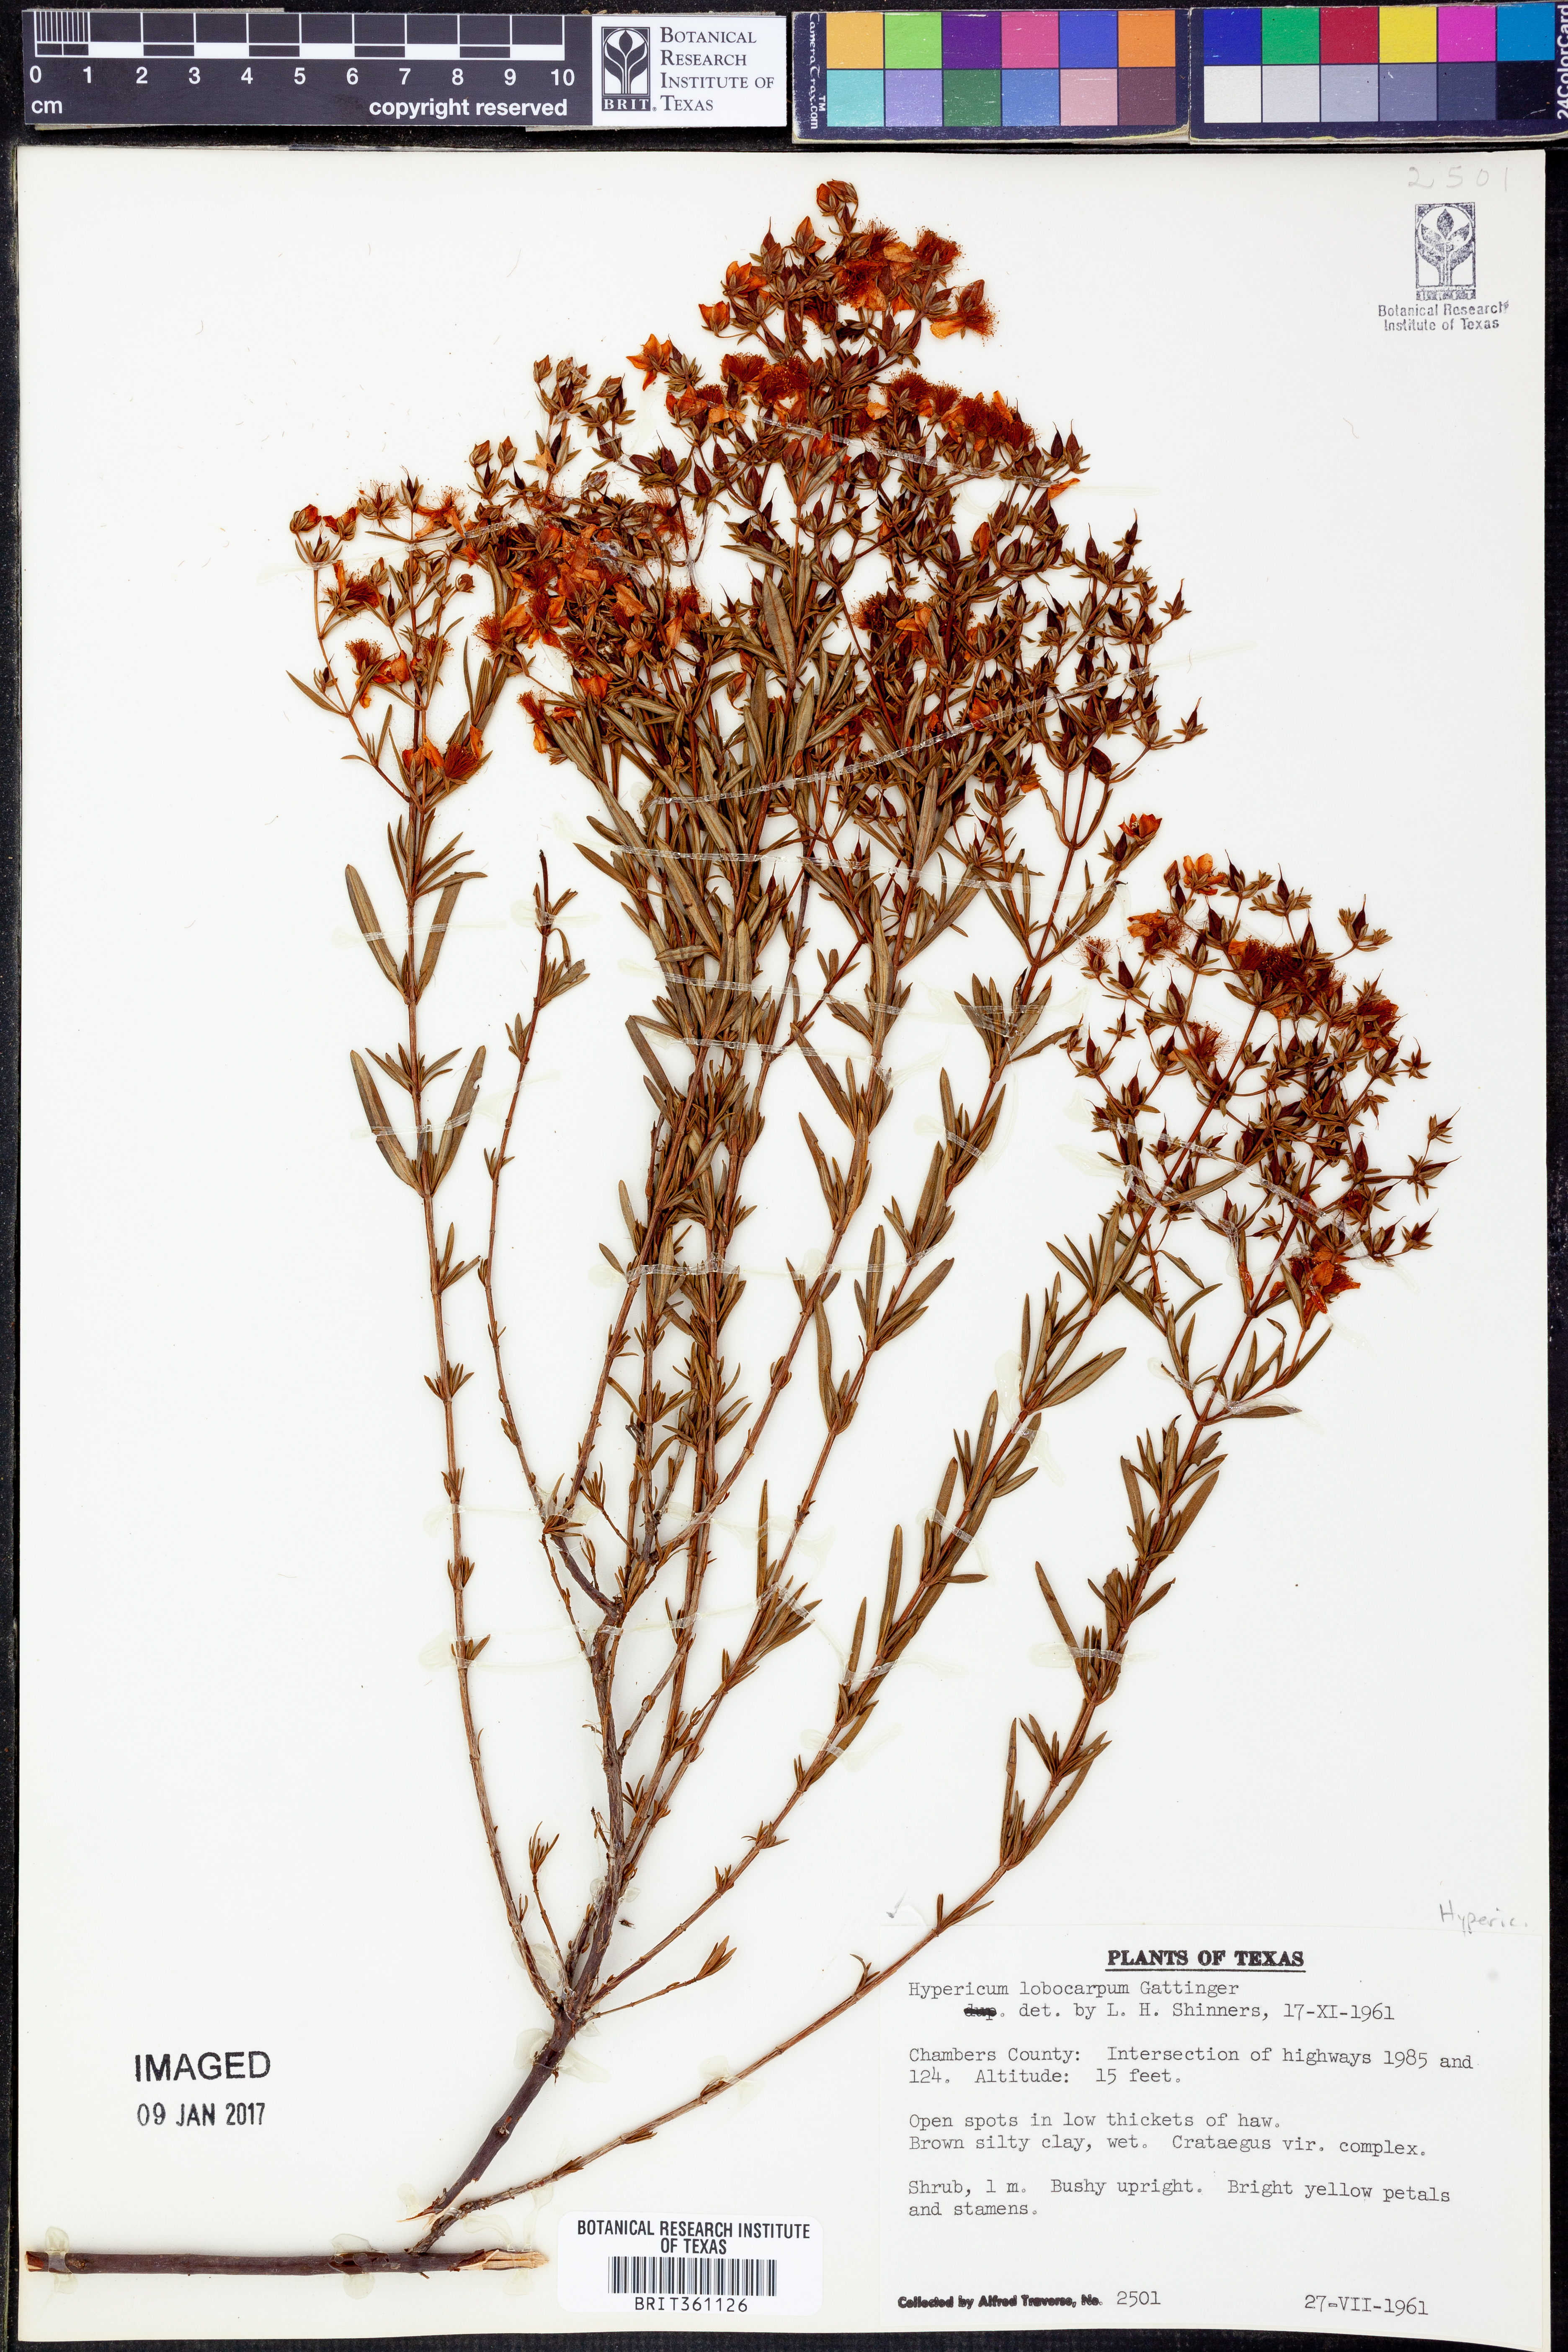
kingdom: Plantae
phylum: Tracheophyta
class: Magnoliopsida
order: Malpighiales
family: Hypericaceae
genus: Hypericum
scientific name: Hypericum lobocarpum
